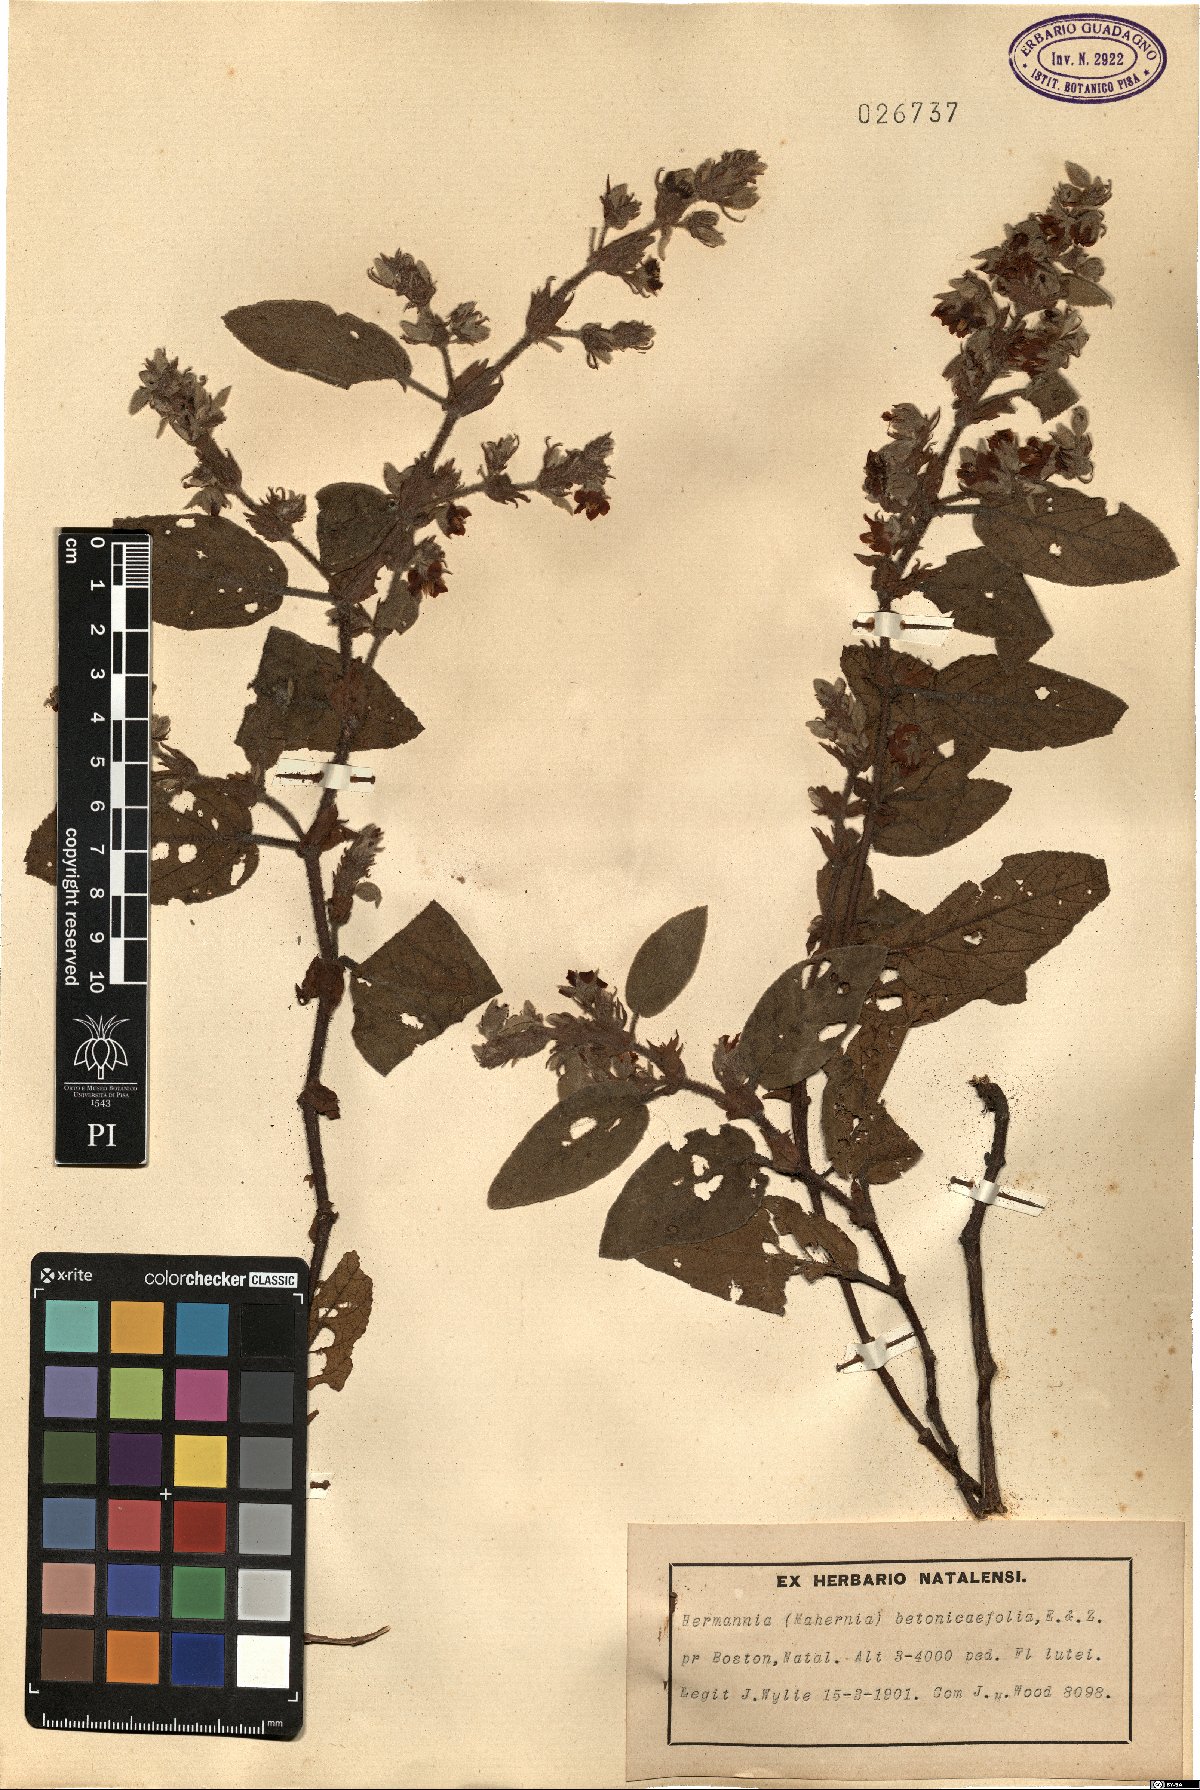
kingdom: Plantae
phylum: Tracheophyta
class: Magnoliopsida
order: Malvales
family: Malvaceae
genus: Hermannia
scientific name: Hermannia geniculata
